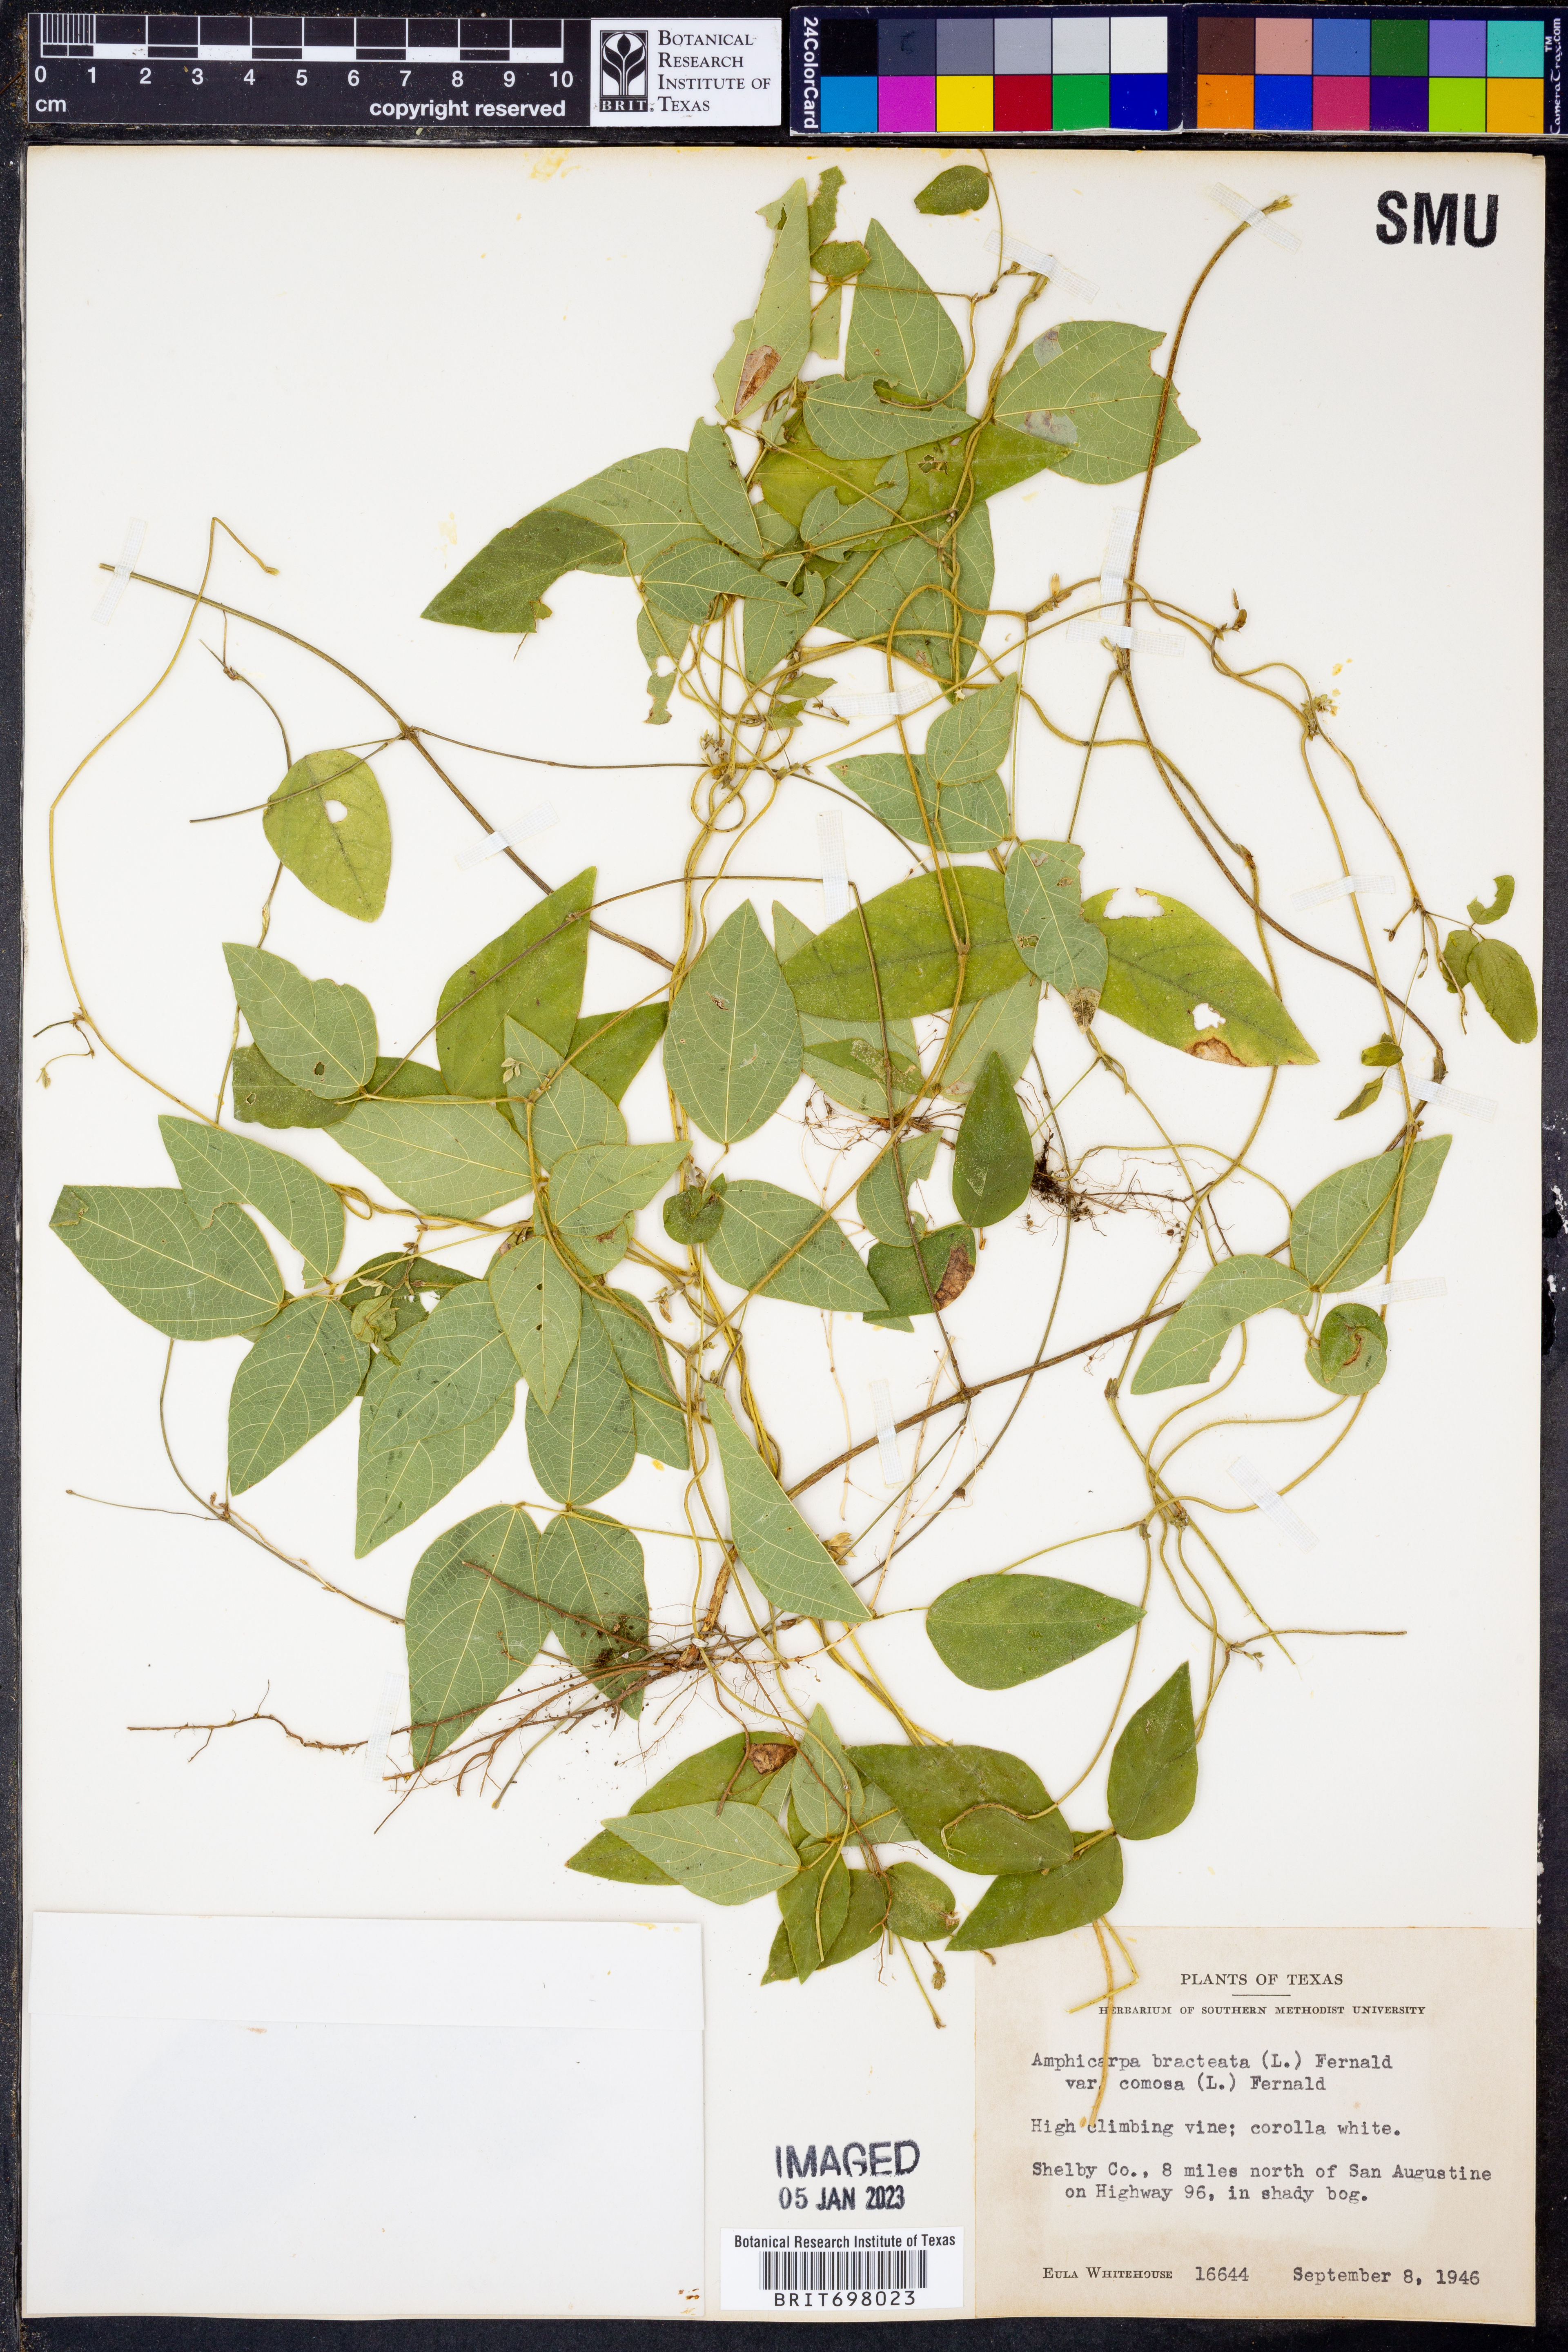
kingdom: Plantae
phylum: Tracheophyta
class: Magnoliopsida
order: Fabales
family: Fabaceae
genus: Amphicarpaea
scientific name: Amphicarpaea bracteata
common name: American hog peanut
